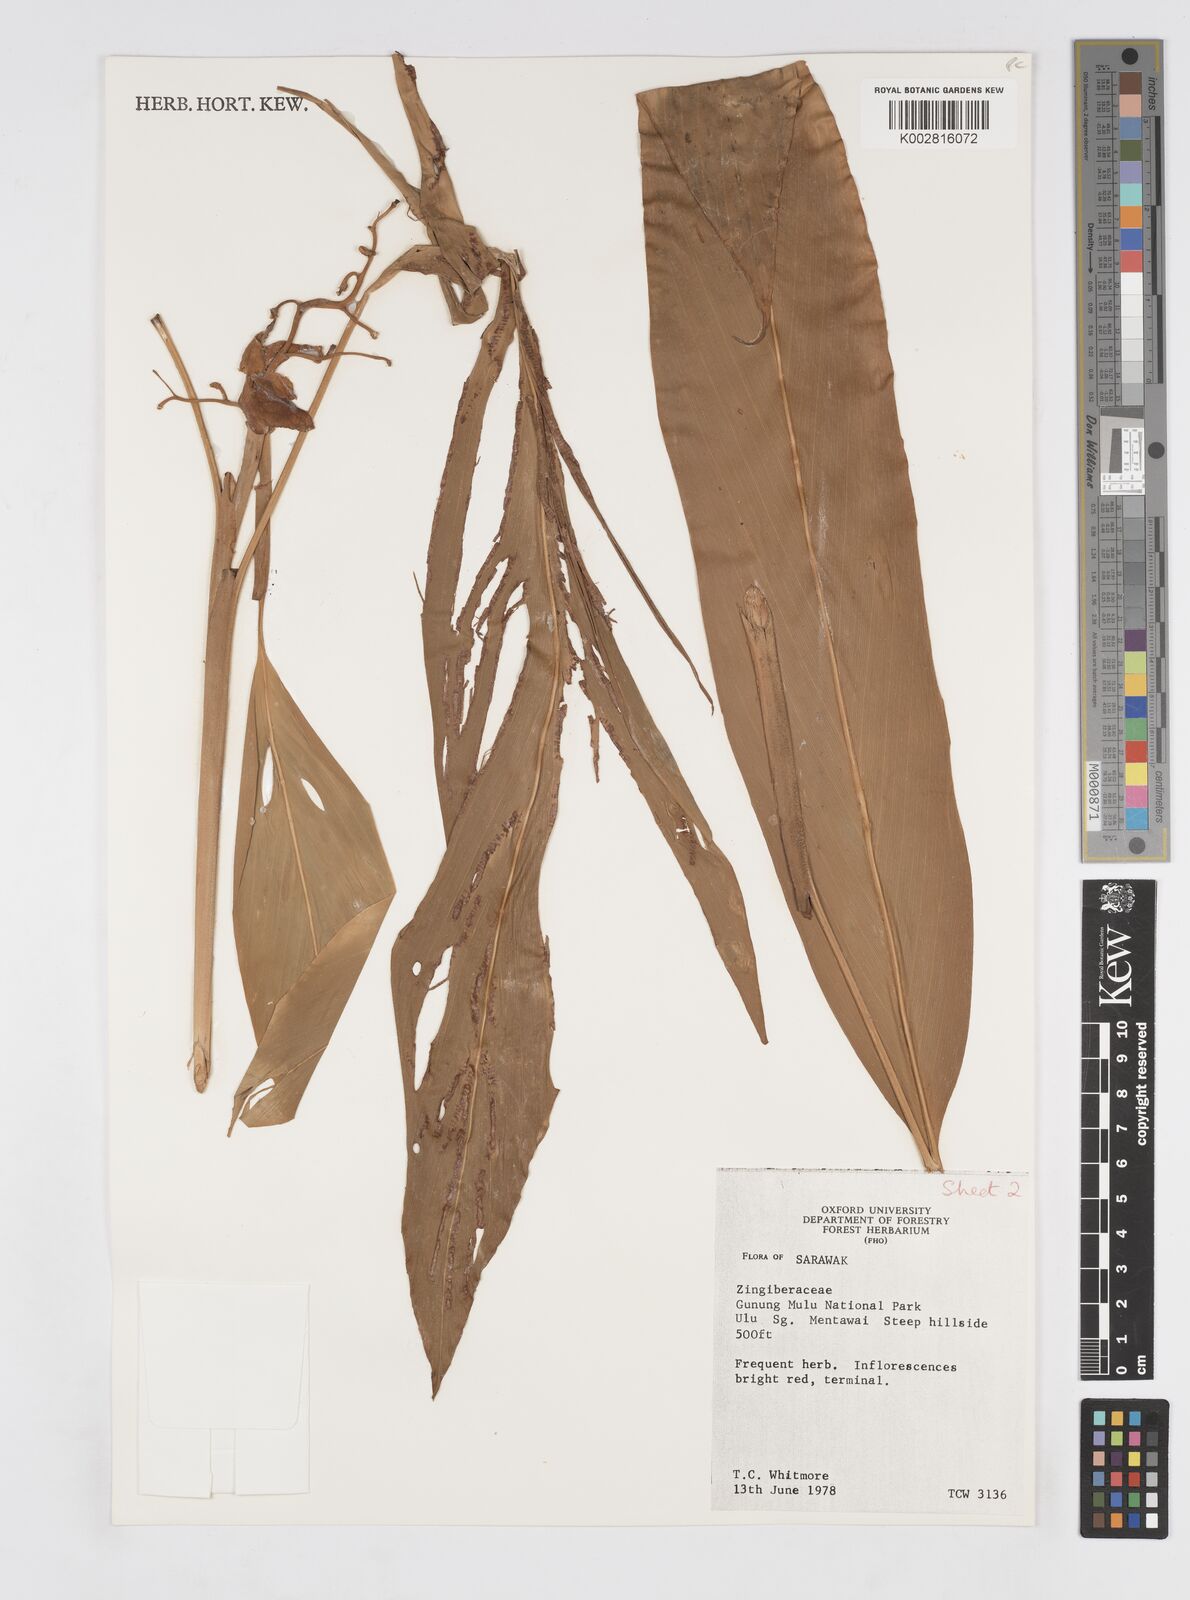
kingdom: Plantae
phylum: Tracheophyta
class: Liliopsida
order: Zingiberales
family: Zingiberaceae
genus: Alpinia
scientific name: Alpinia
